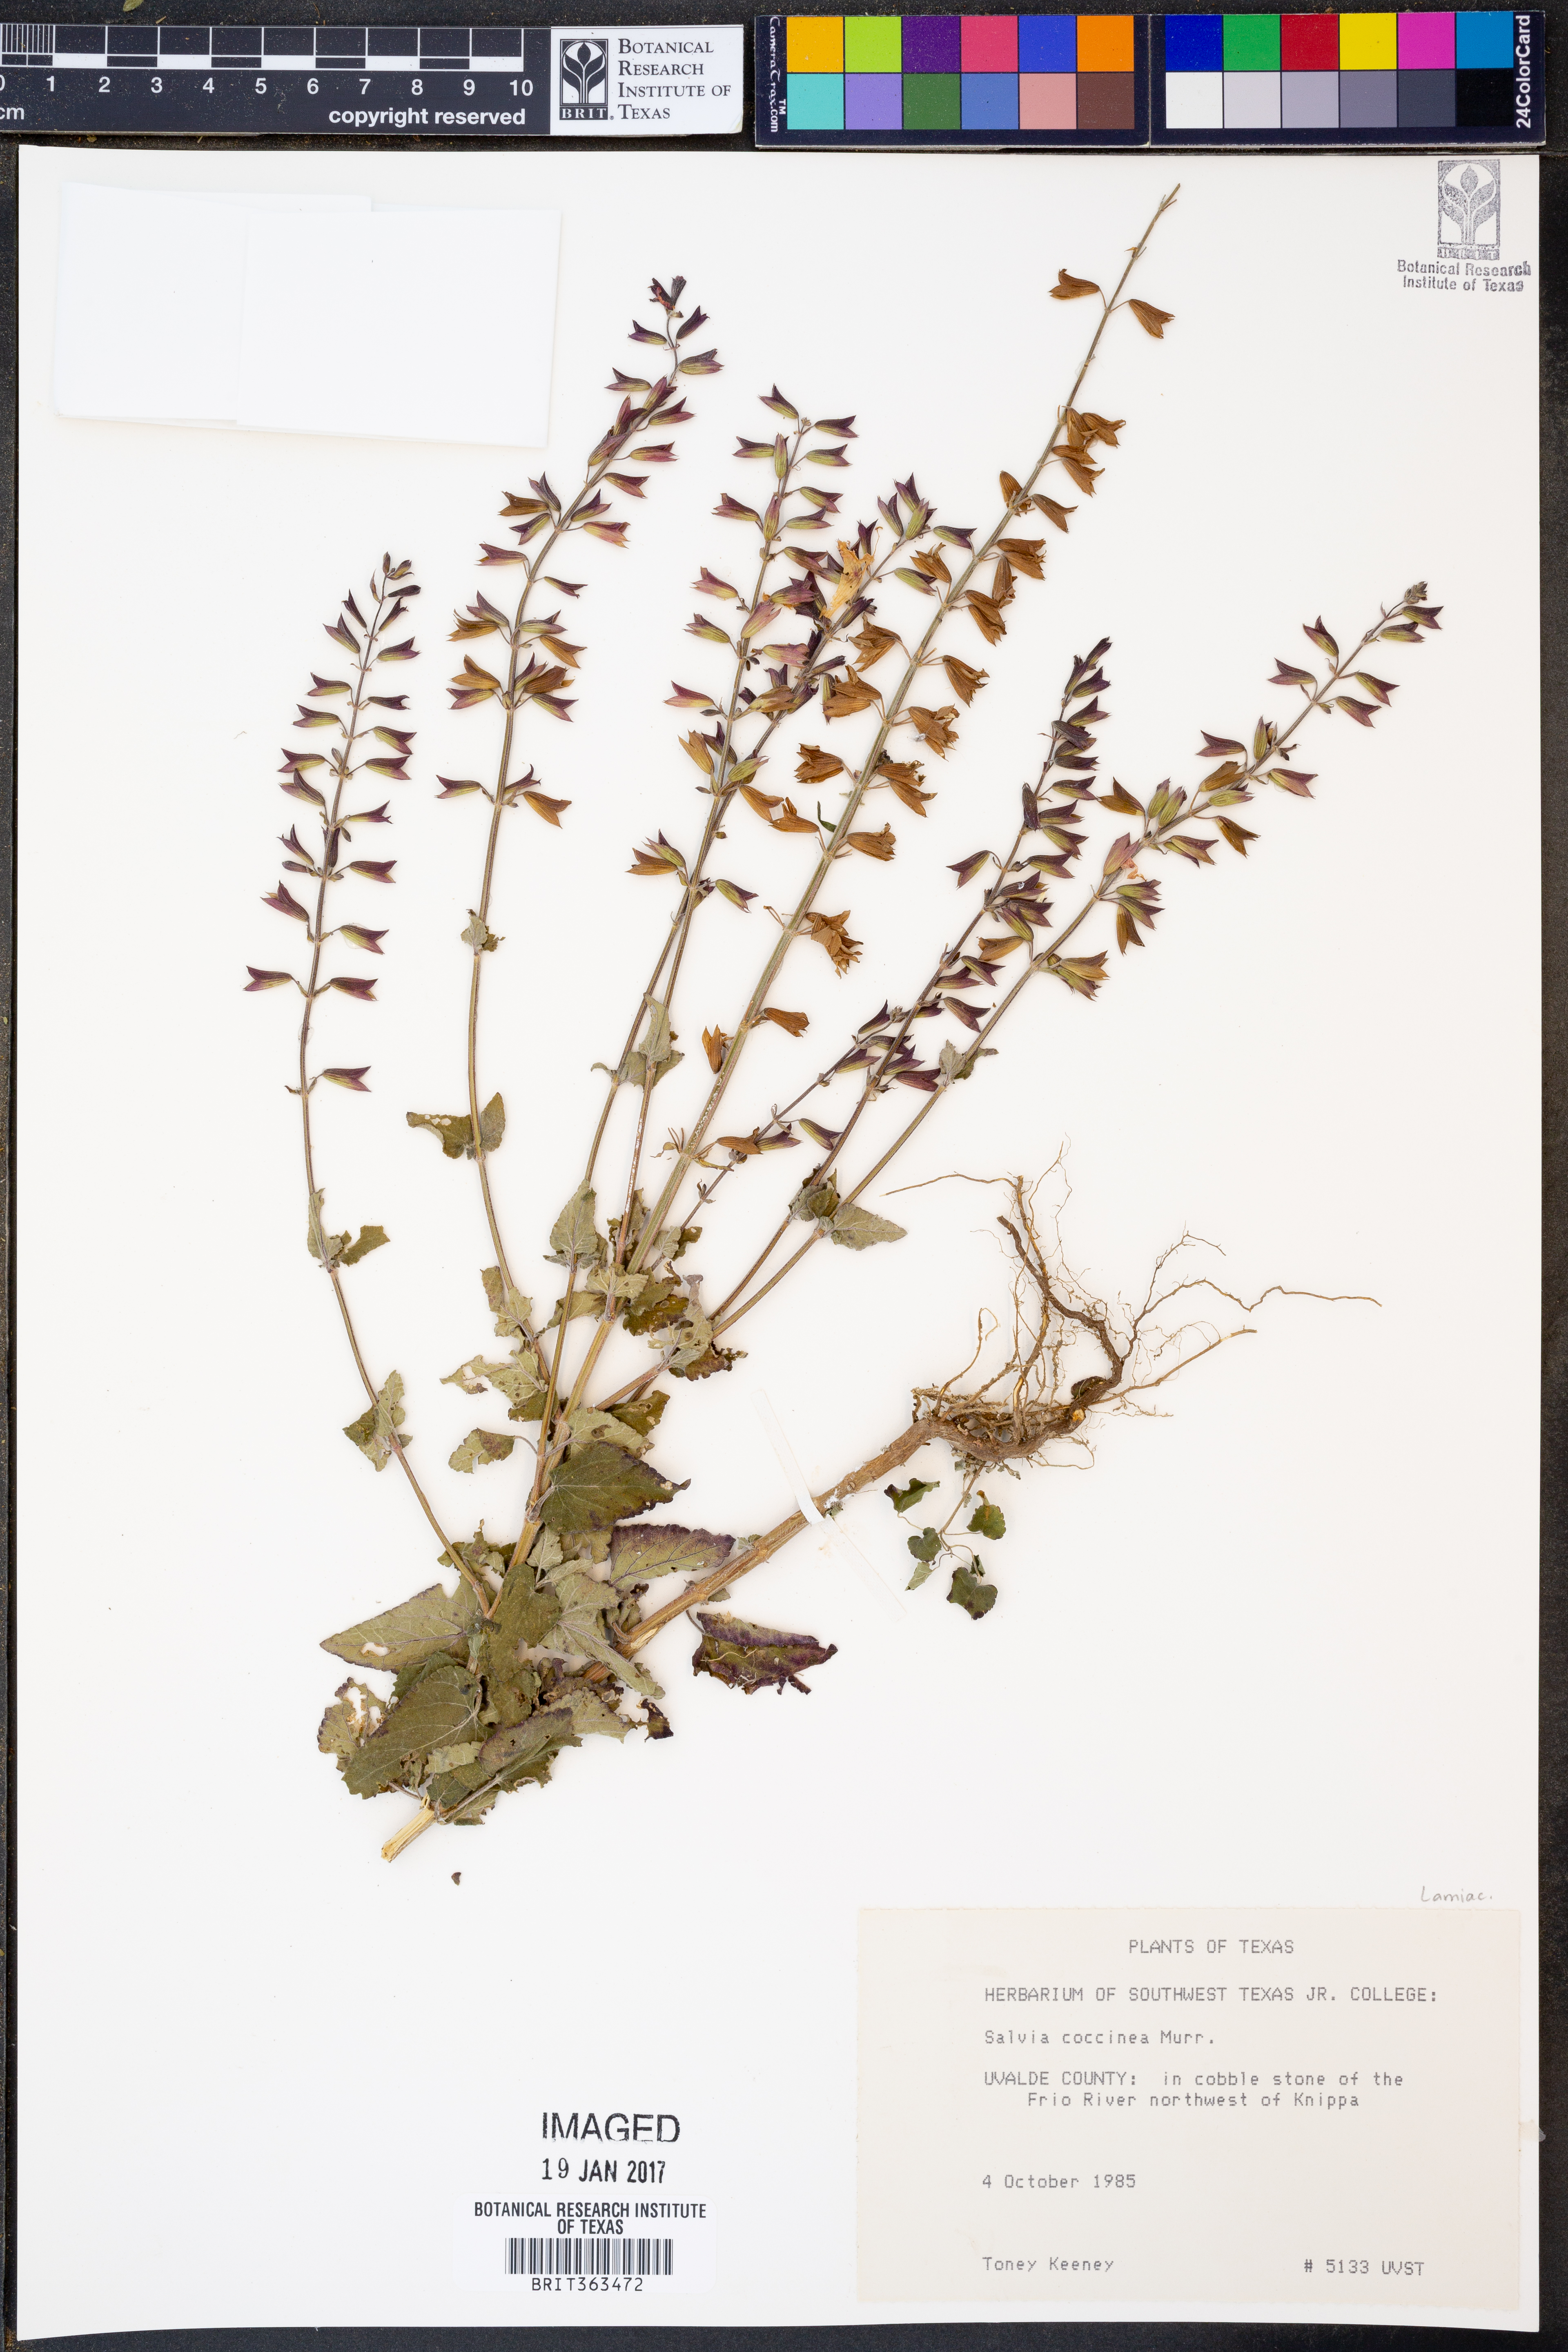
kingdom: Plantae
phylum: Tracheophyta
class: Magnoliopsida
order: Lamiales
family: Lamiaceae
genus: Salvia
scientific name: Salvia coccinea
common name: Blood sage
